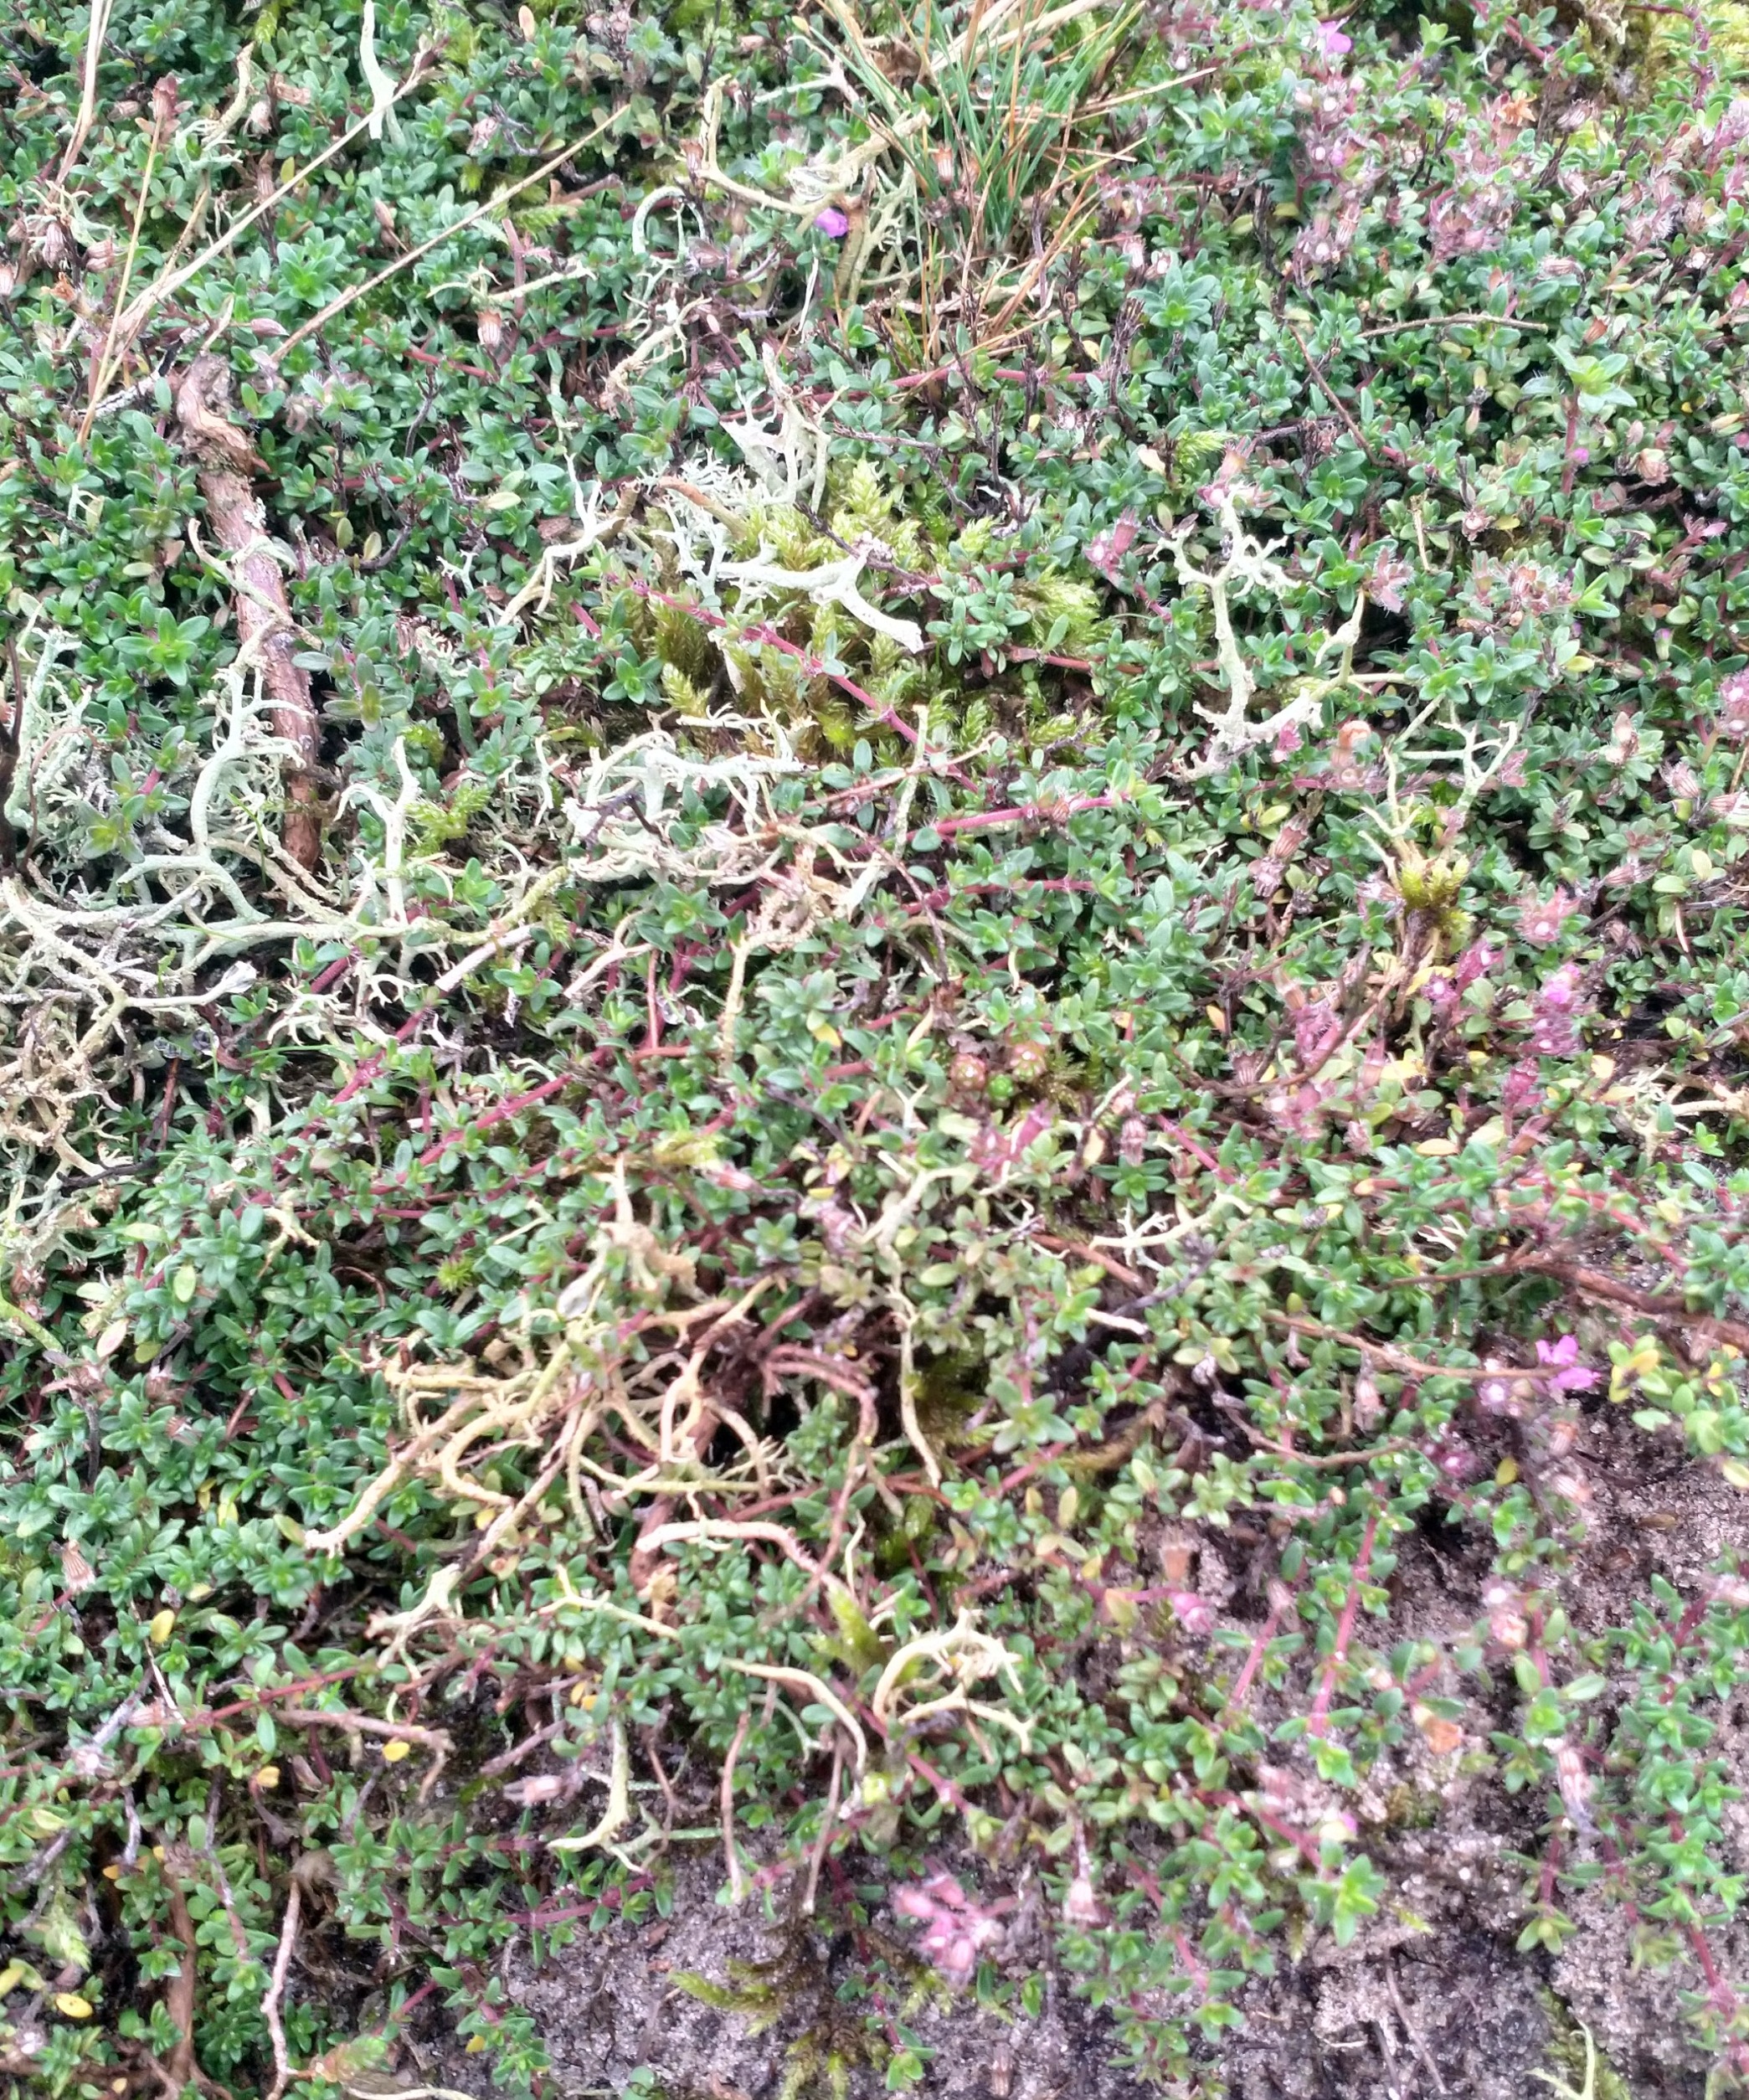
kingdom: Plantae
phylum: Tracheophyta
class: Magnoliopsida
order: Lamiales
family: Lamiaceae
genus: Thymus
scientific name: Thymus serpyllum
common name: Smalbladet timian
